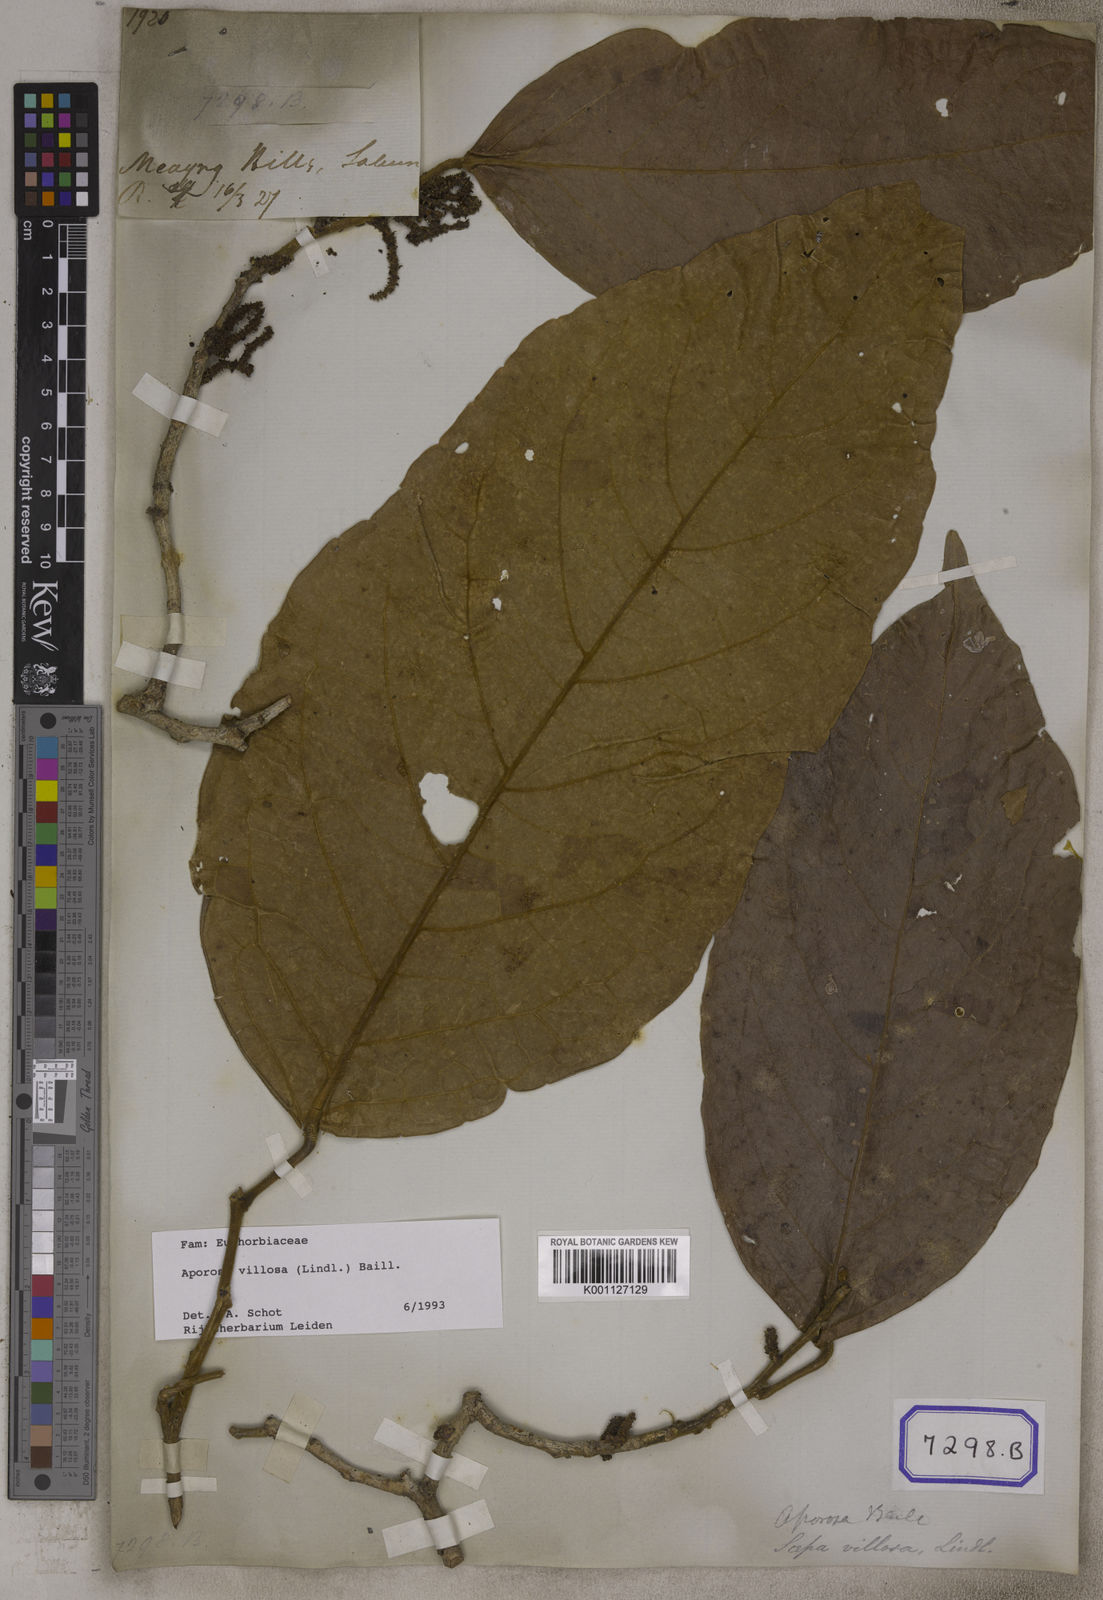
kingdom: Plantae
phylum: Tracheophyta
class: Magnoliopsida
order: Malpighiales
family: Euphorbiaceae
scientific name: Euphorbiaceae
